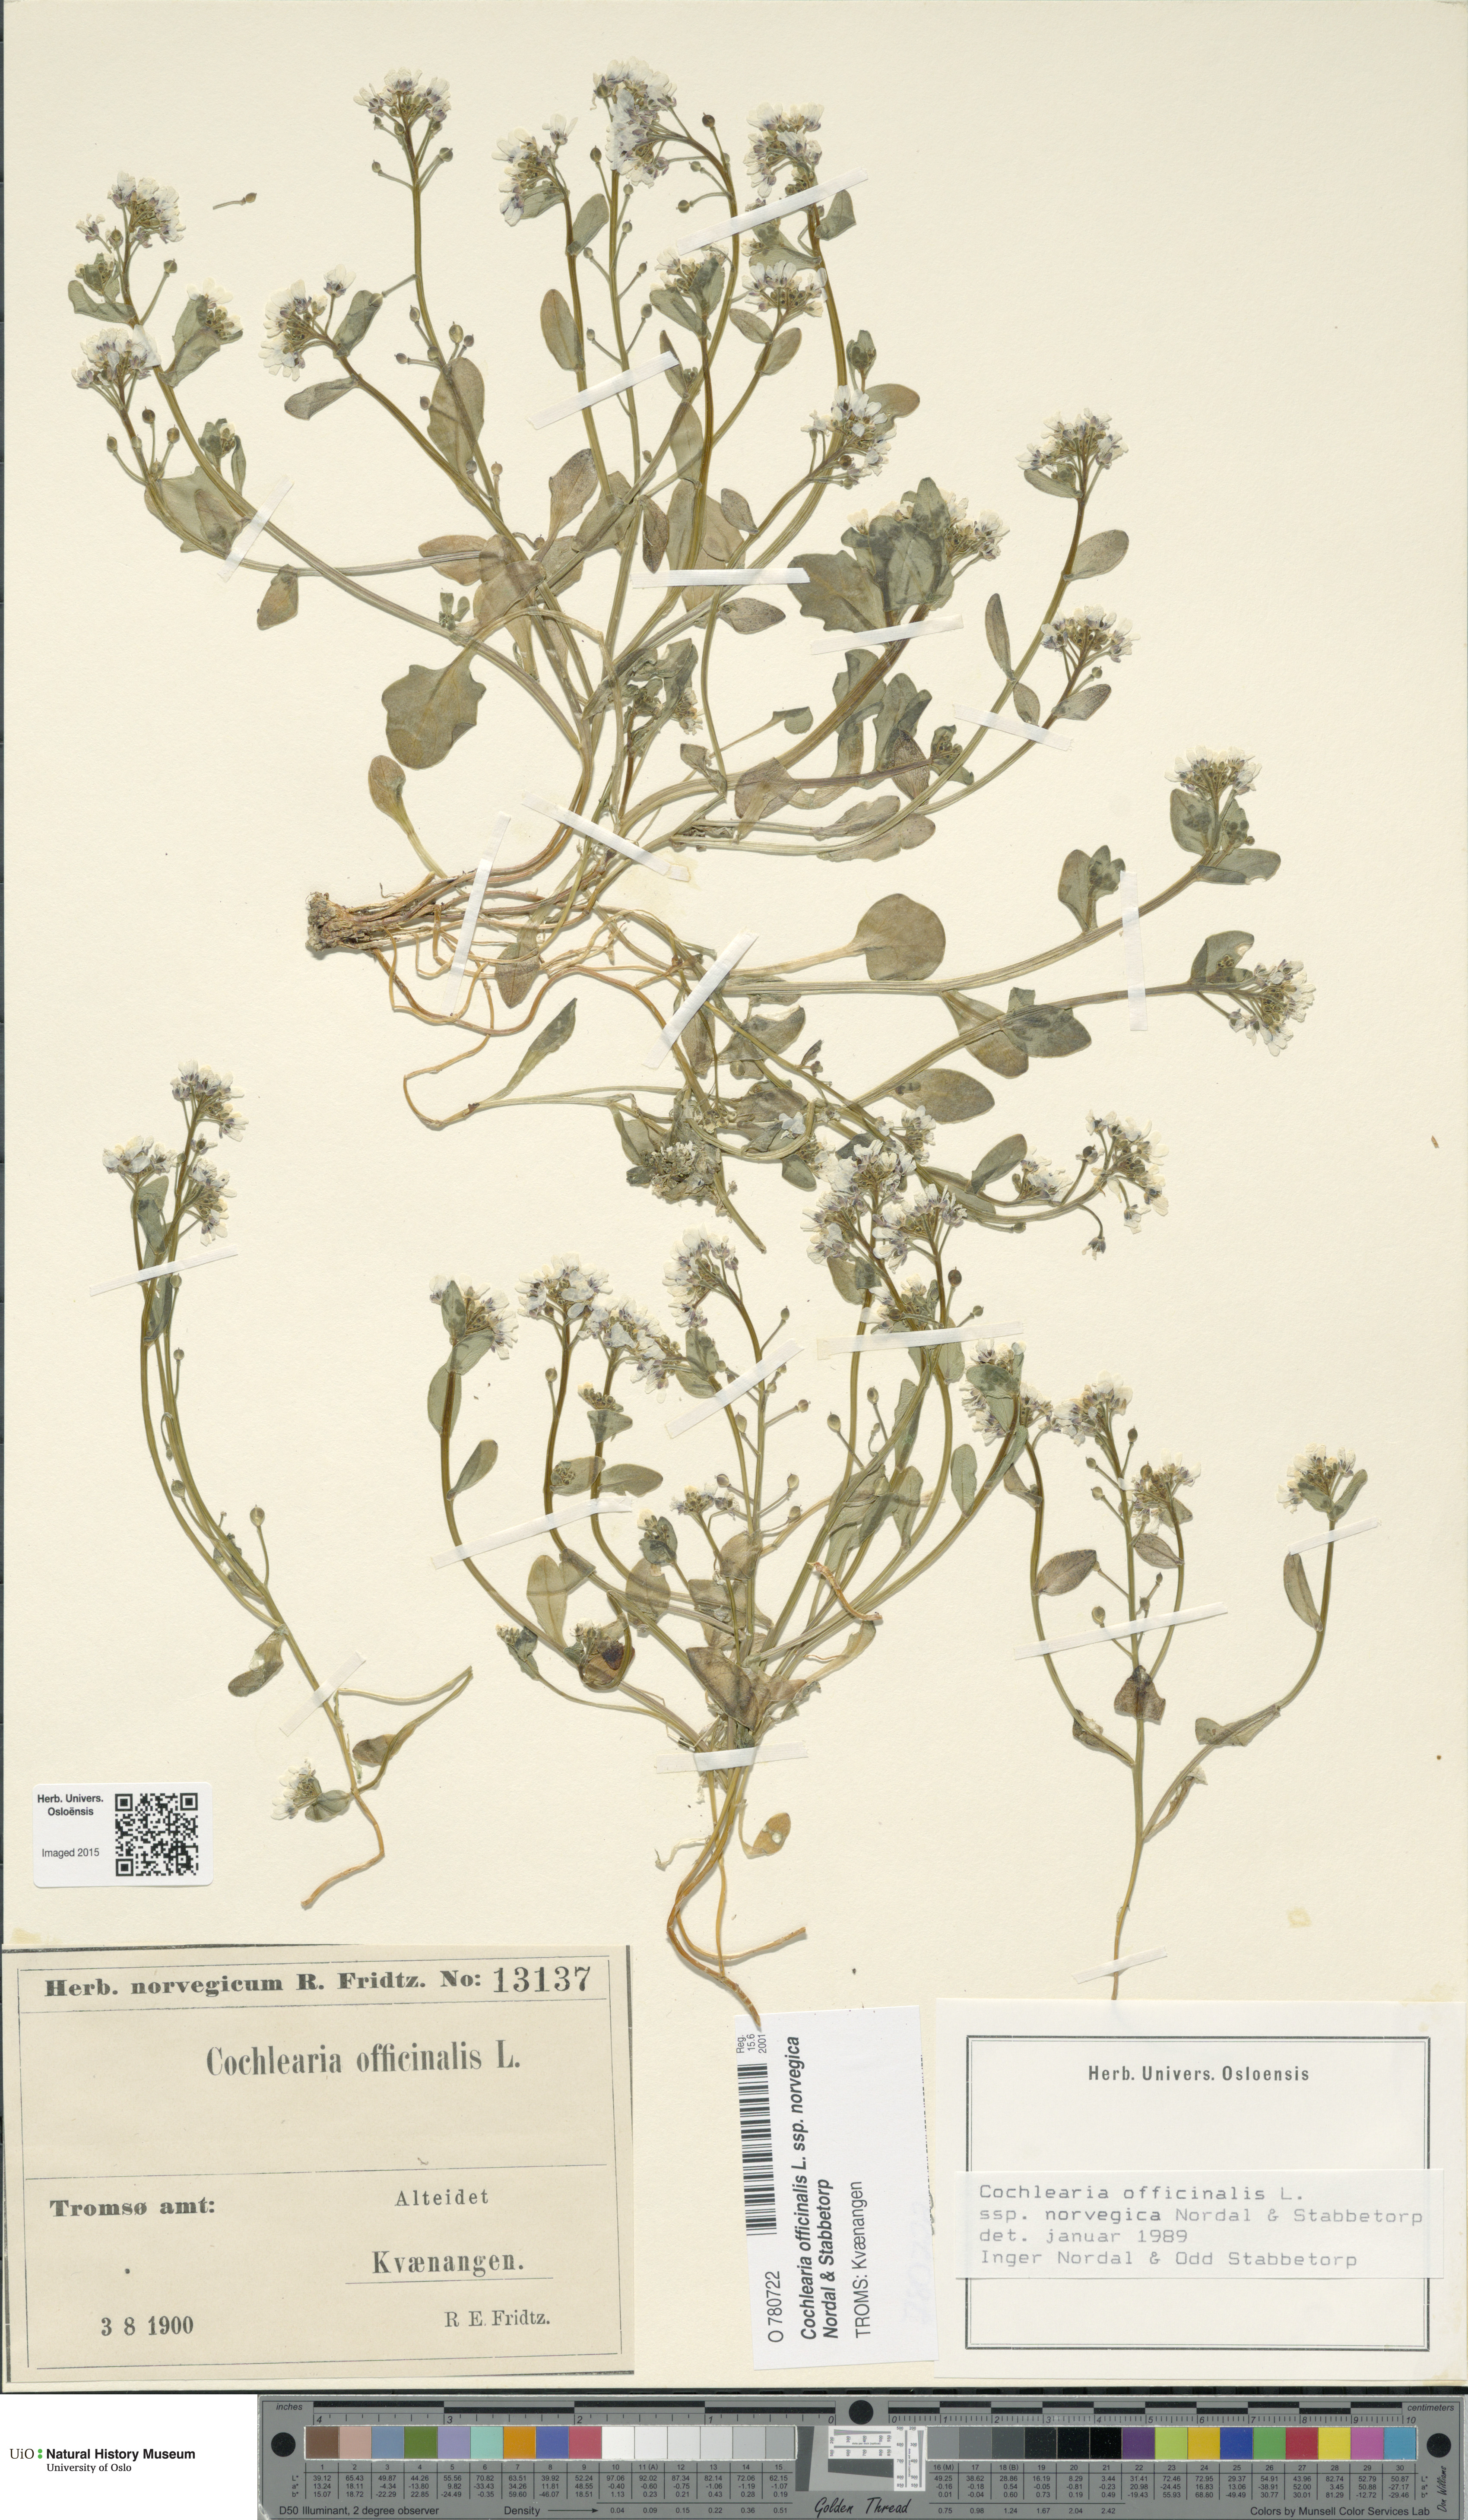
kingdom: Plantae
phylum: Tracheophyta
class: Magnoliopsida
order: Brassicales
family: Brassicaceae
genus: Cochlearia
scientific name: Cochlearia officinalis
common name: Scurvy-grass
